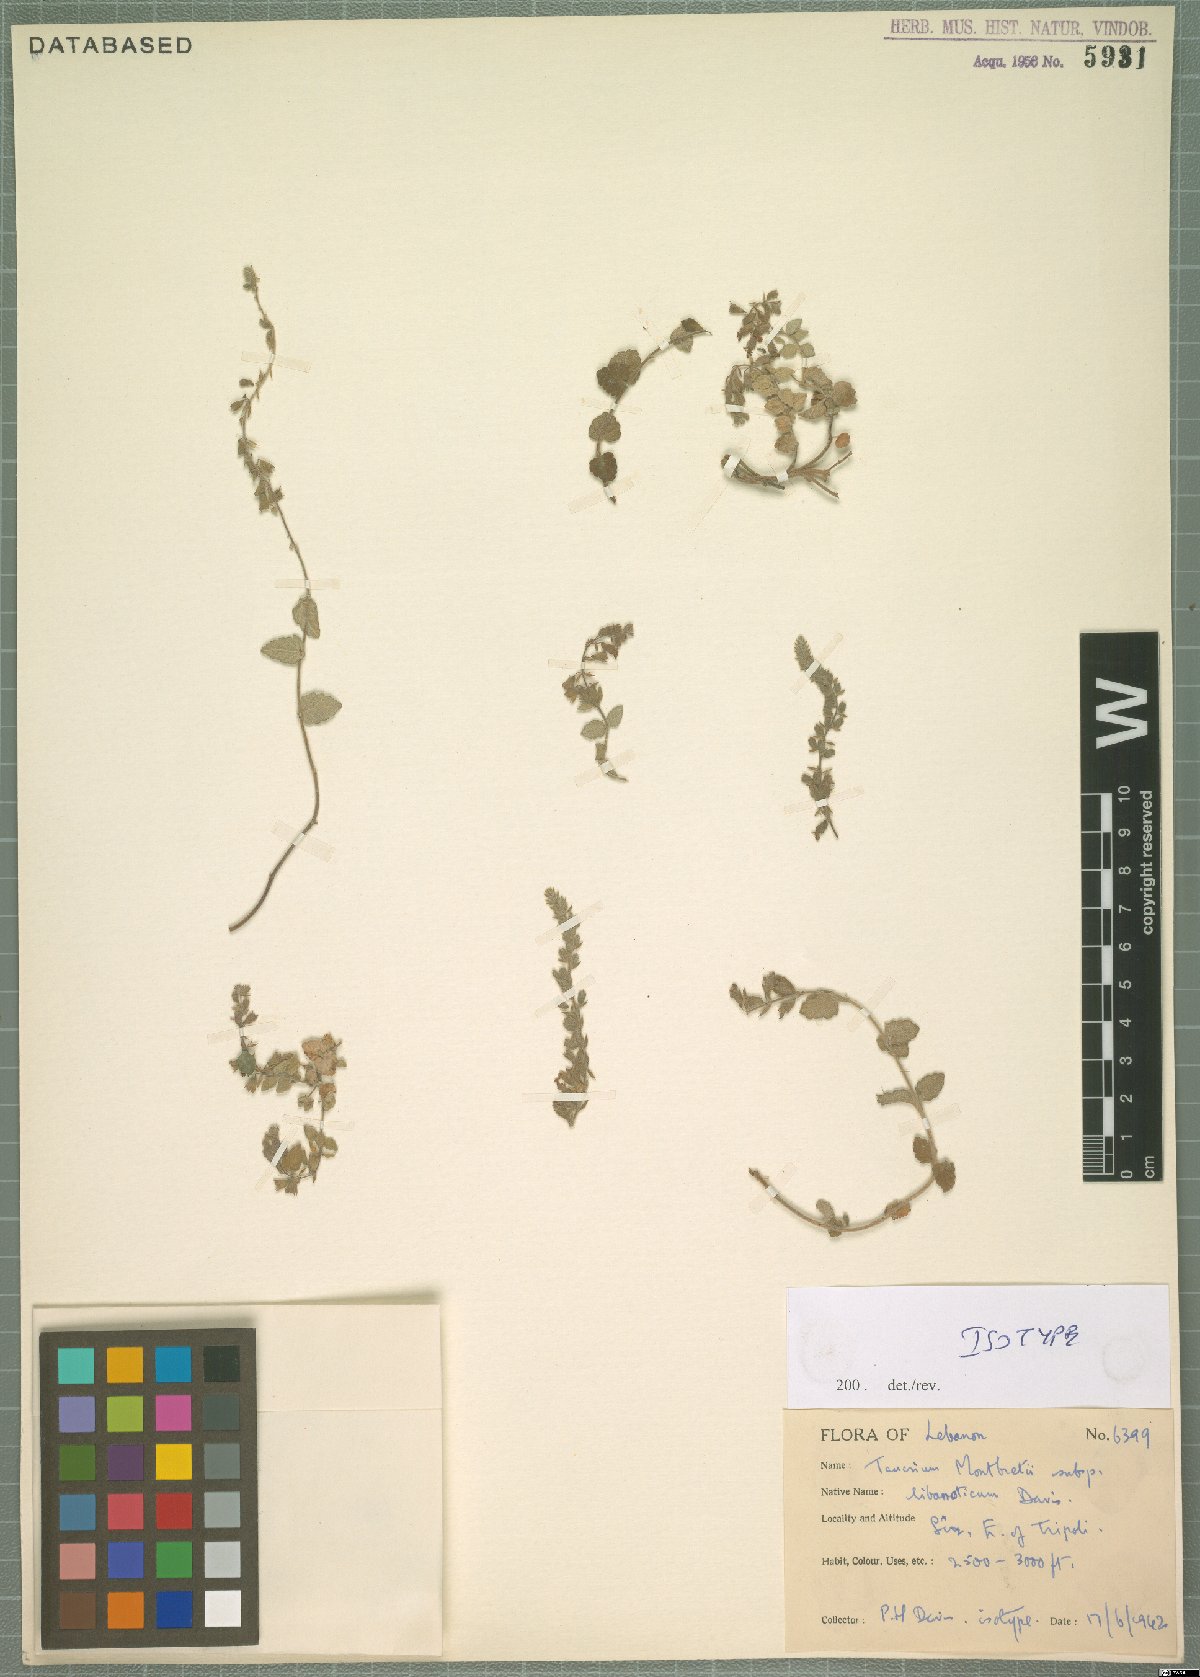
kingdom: Plantae
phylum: Tracheophyta
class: Magnoliopsida
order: Lamiales
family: Lamiaceae
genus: Teucrium
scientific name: Teucrium montbretii
